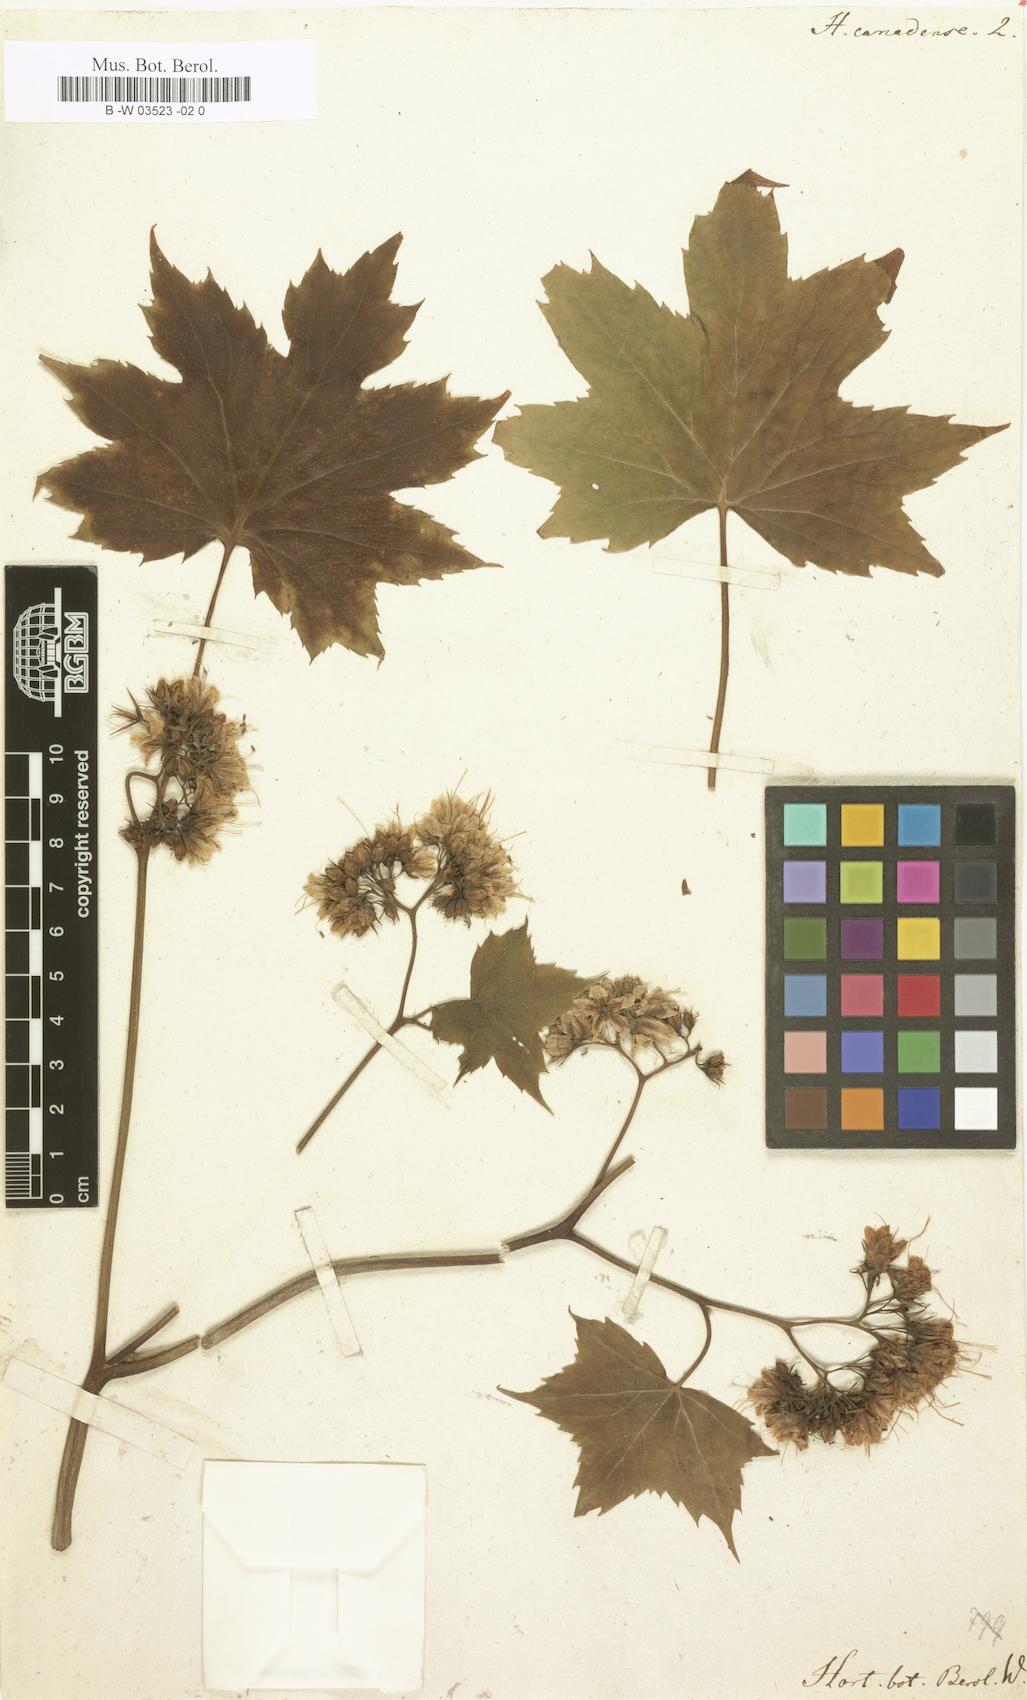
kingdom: Plantae
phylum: Tracheophyta
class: Magnoliopsida
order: Boraginales
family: Hydrophyllaceae
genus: Hydrophyllum
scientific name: Hydrophyllum canadense
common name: Canada waterleaf
